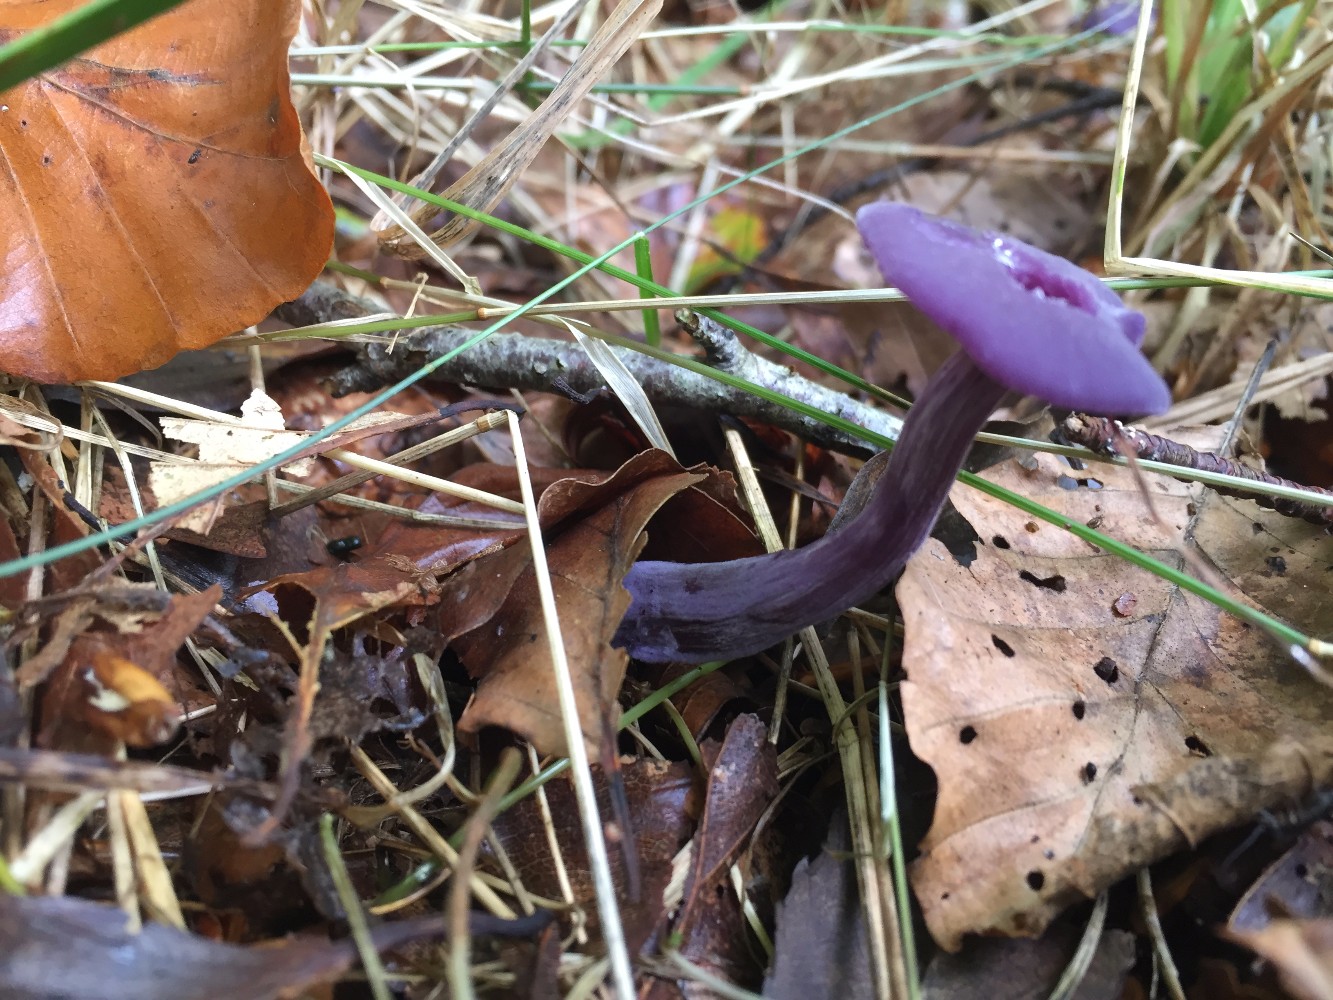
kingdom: Fungi
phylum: Basidiomycota
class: Agaricomycetes
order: Agaricales
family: Hydnangiaceae
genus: Laccaria
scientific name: Laccaria amethystina
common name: violet ametysthat
